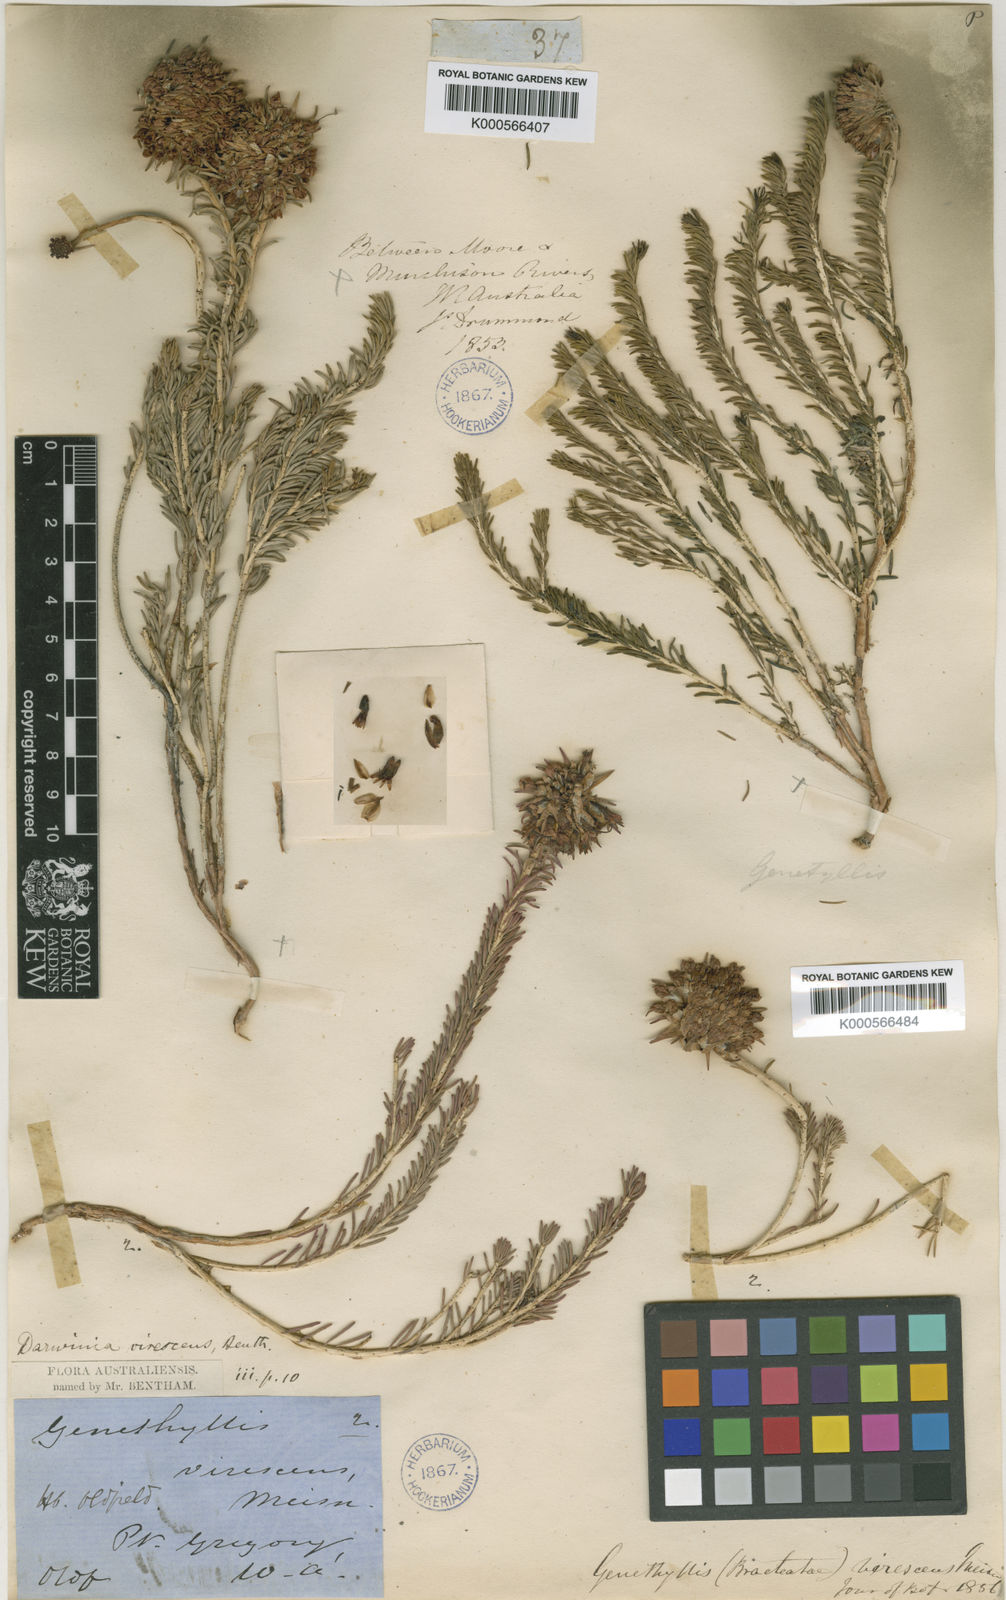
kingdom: Plantae
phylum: Tracheophyta
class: Magnoliopsida
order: Myrtales
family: Myrtaceae
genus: Darwinia
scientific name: Darwinia virescens
